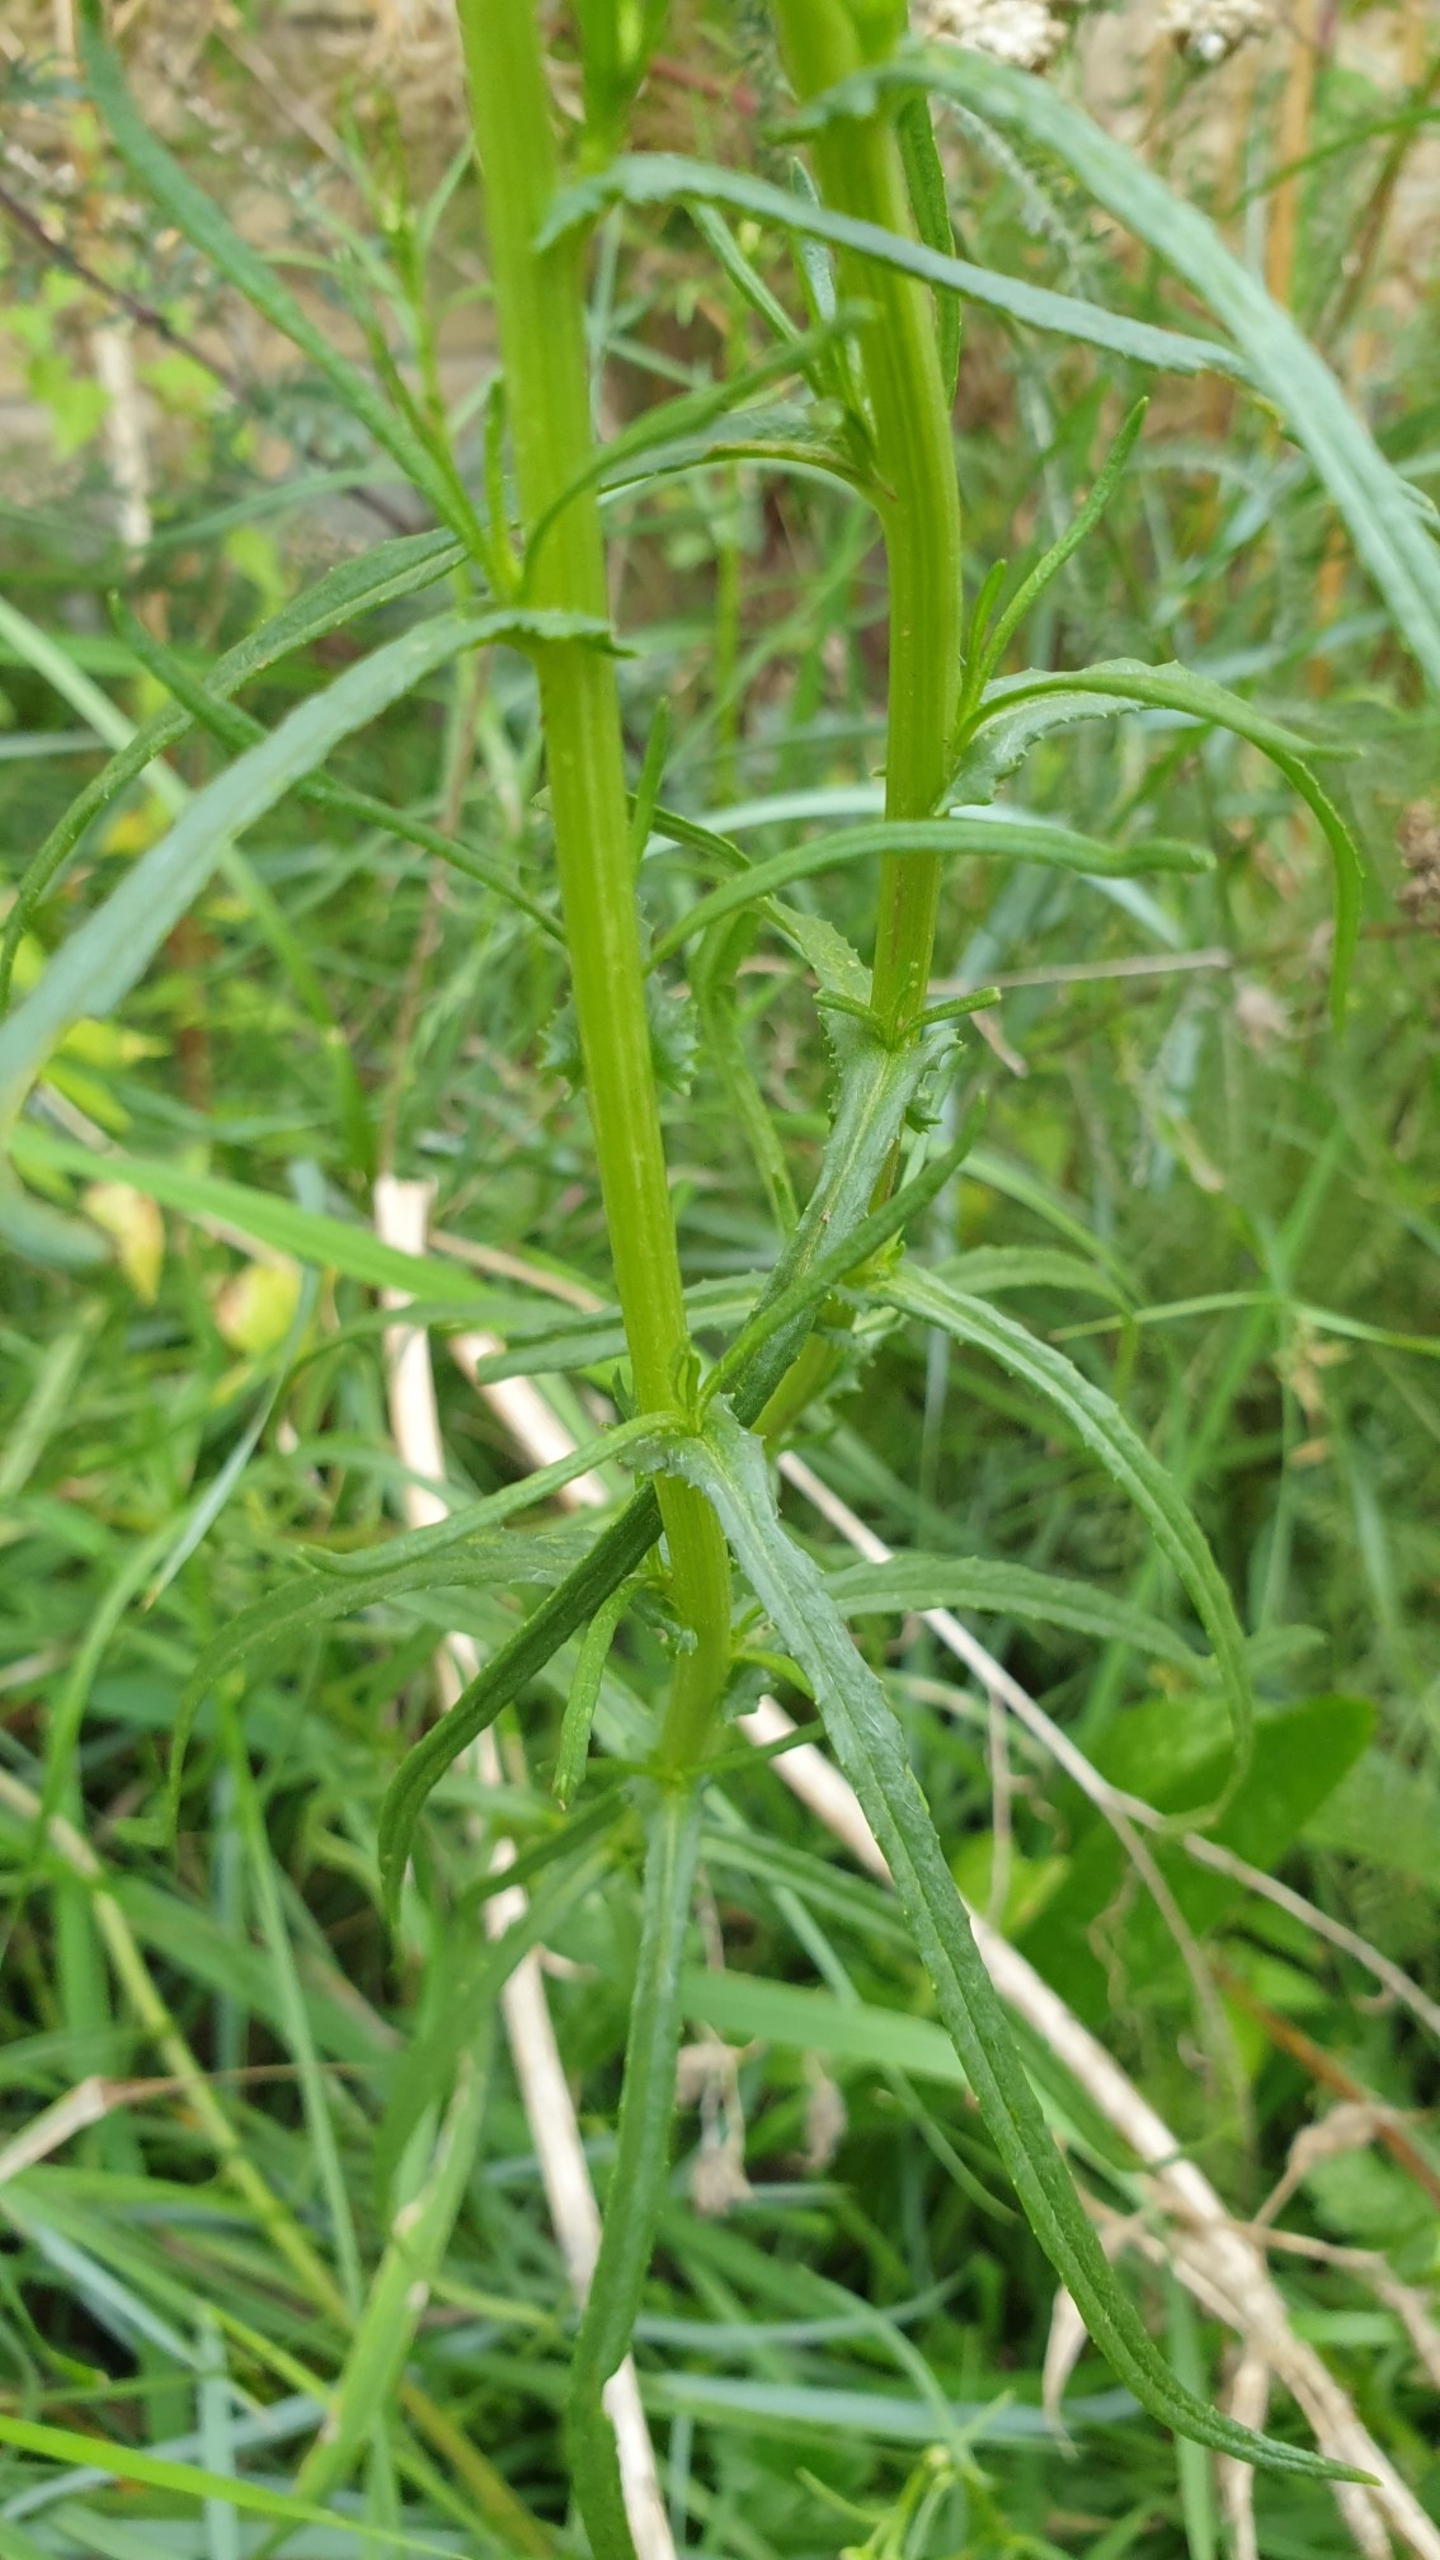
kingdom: Plantae
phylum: Tracheophyta
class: Magnoliopsida
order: Asterales
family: Asteraceae
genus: Senecio
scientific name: Senecio inaequidens
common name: Smalbladet brandbæger
